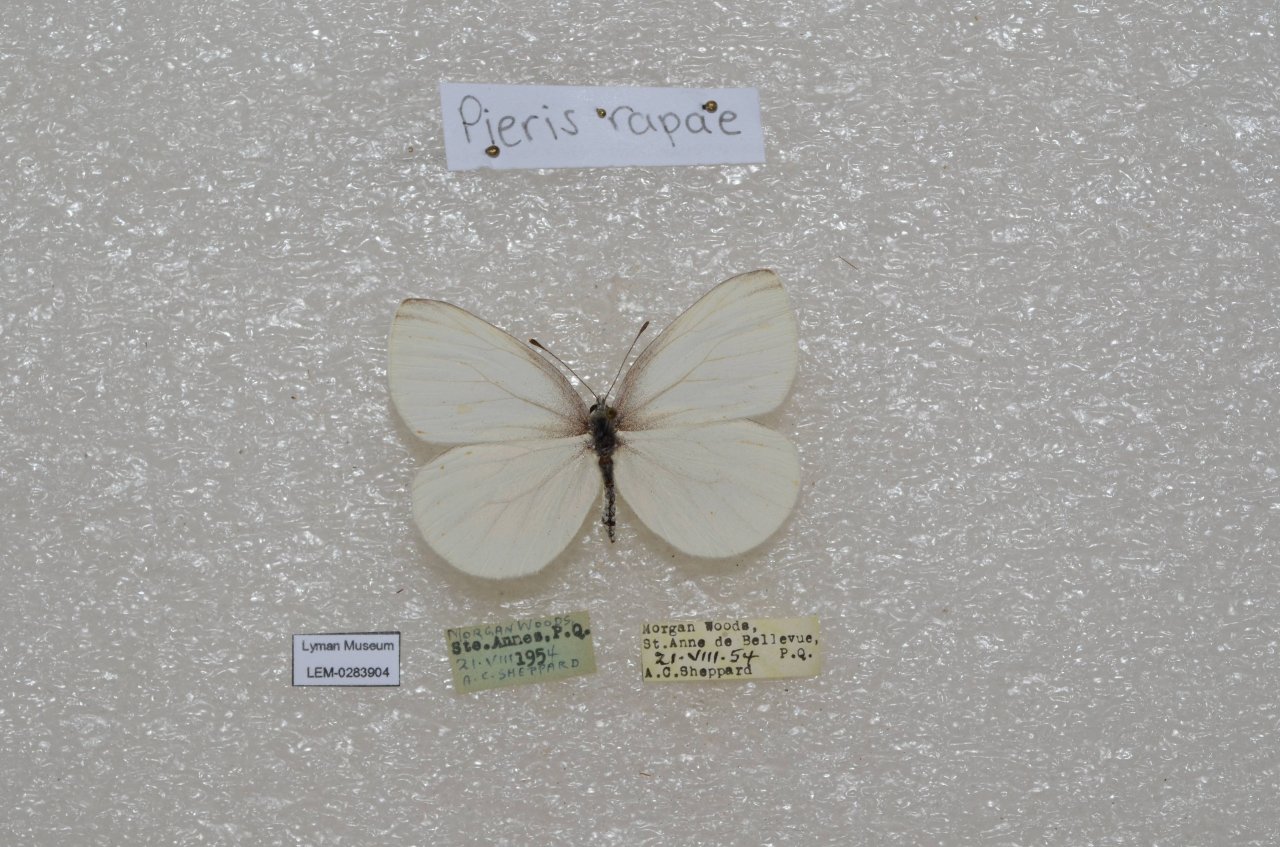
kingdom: Animalia
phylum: Arthropoda
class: Insecta
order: Lepidoptera
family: Pieridae
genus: Pieris
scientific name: Pieris oleracea
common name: Mustard White
